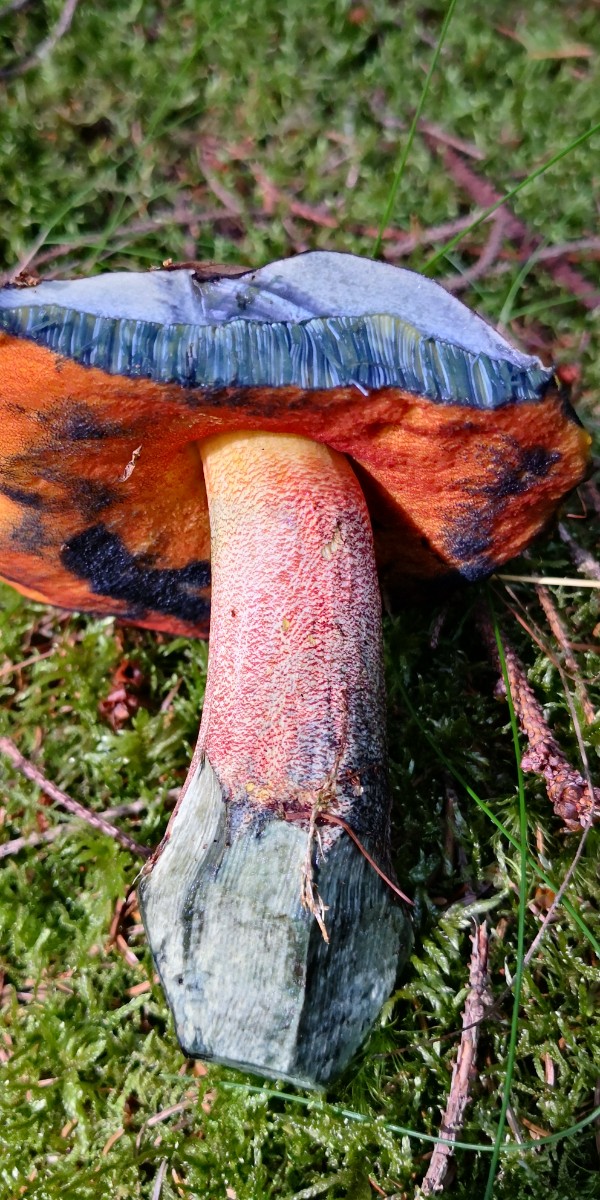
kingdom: Fungi
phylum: Basidiomycota
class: Agaricomycetes
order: Boletales
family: Boletaceae
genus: Neoboletus
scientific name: Neoboletus erythropus
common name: punktstokket indigorørhat
